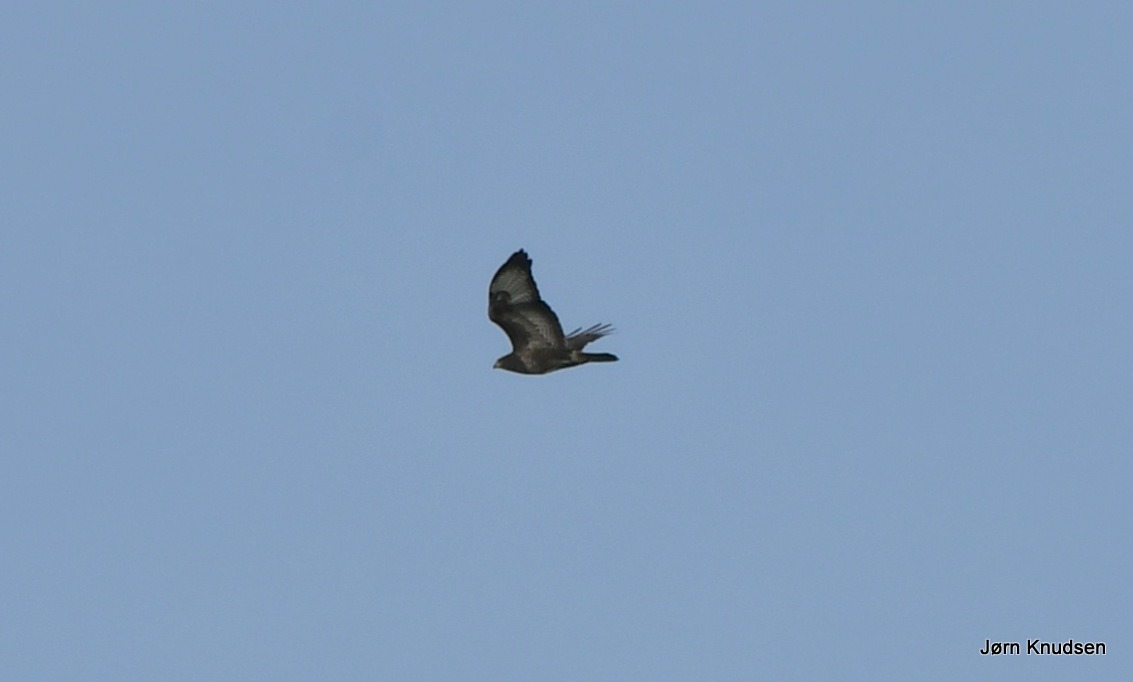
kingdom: Animalia
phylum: Chordata
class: Aves
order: Accipitriformes
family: Accipitridae
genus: Buteo
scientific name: Buteo buteo
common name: Musvåge
